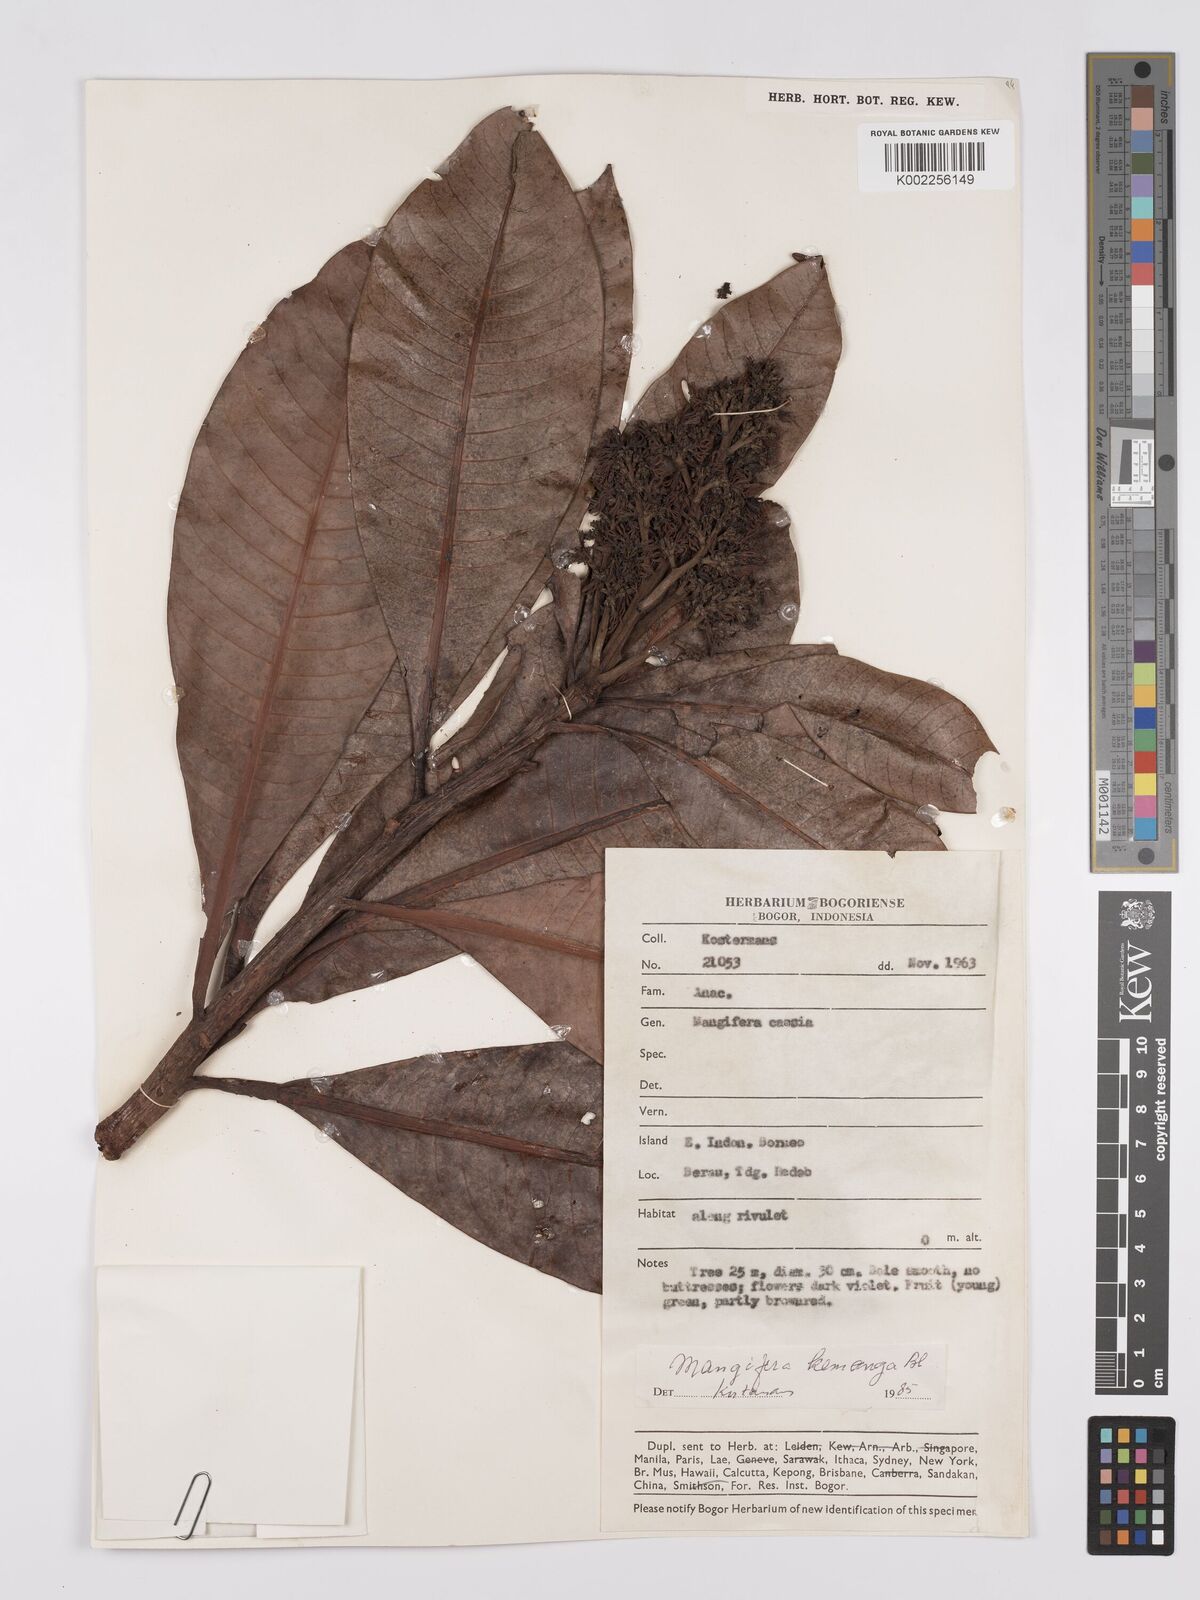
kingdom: Plantae
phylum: Tracheophyta
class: Magnoliopsida
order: Sapindales
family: Anacardiaceae
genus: Mangifera
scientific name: Mangifera caesia
